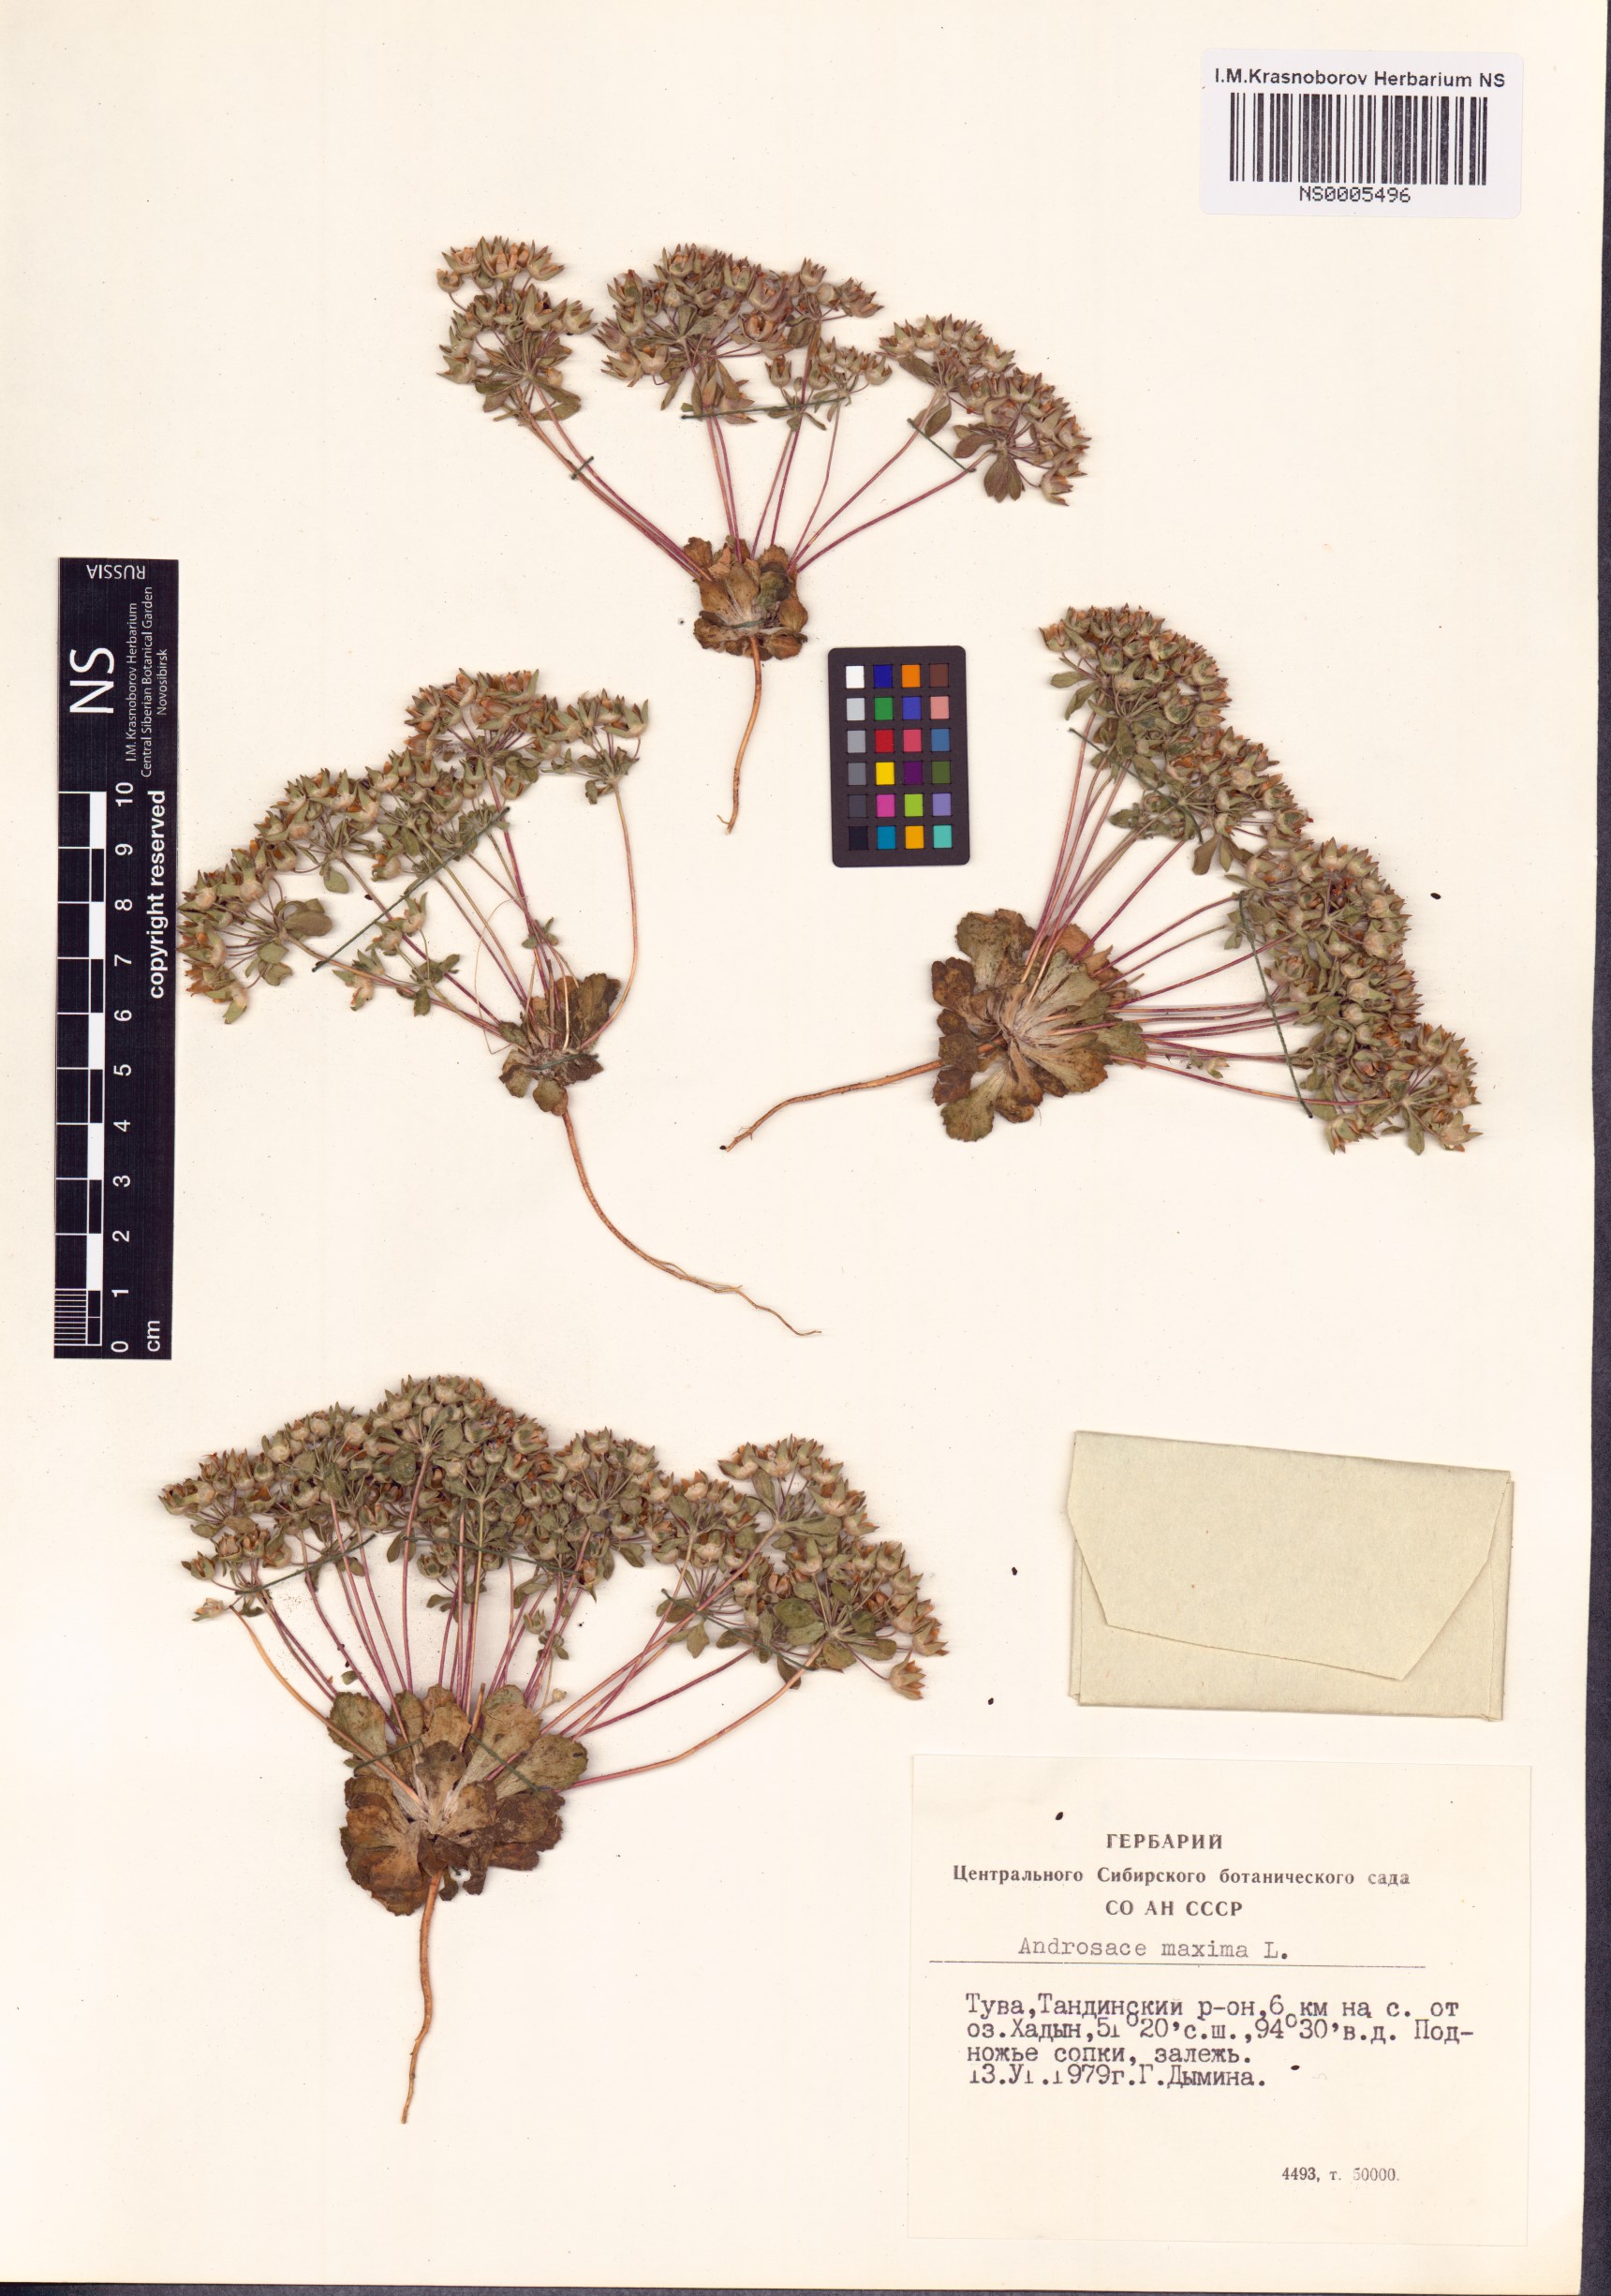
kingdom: Plantae
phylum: Tracheophyta
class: Magnoliopsida
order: Ericales
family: Primulaceae
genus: Androsace
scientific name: Androsace maxima
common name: Annual androsace
